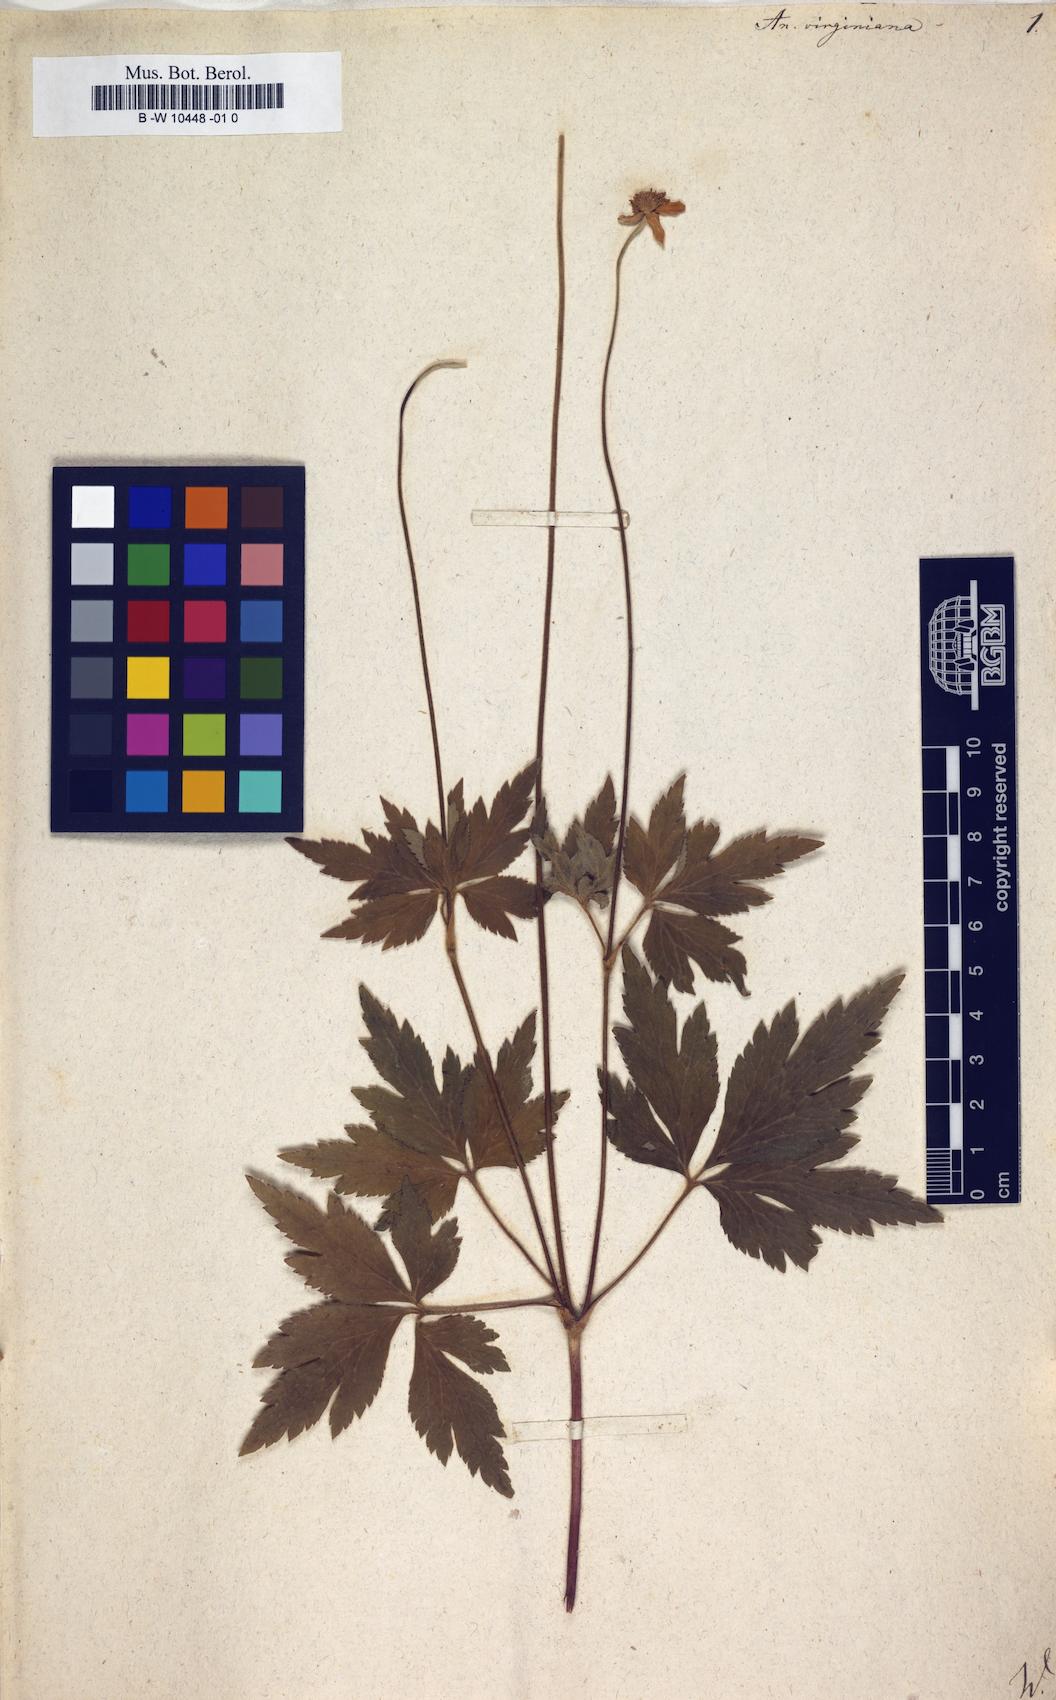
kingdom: Plantae
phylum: Tracheophyta
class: Magnoliopsida
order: Ranunculales
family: Ranunculaceae
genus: Anemone
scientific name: Anemone virginiana
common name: Tall anemone
